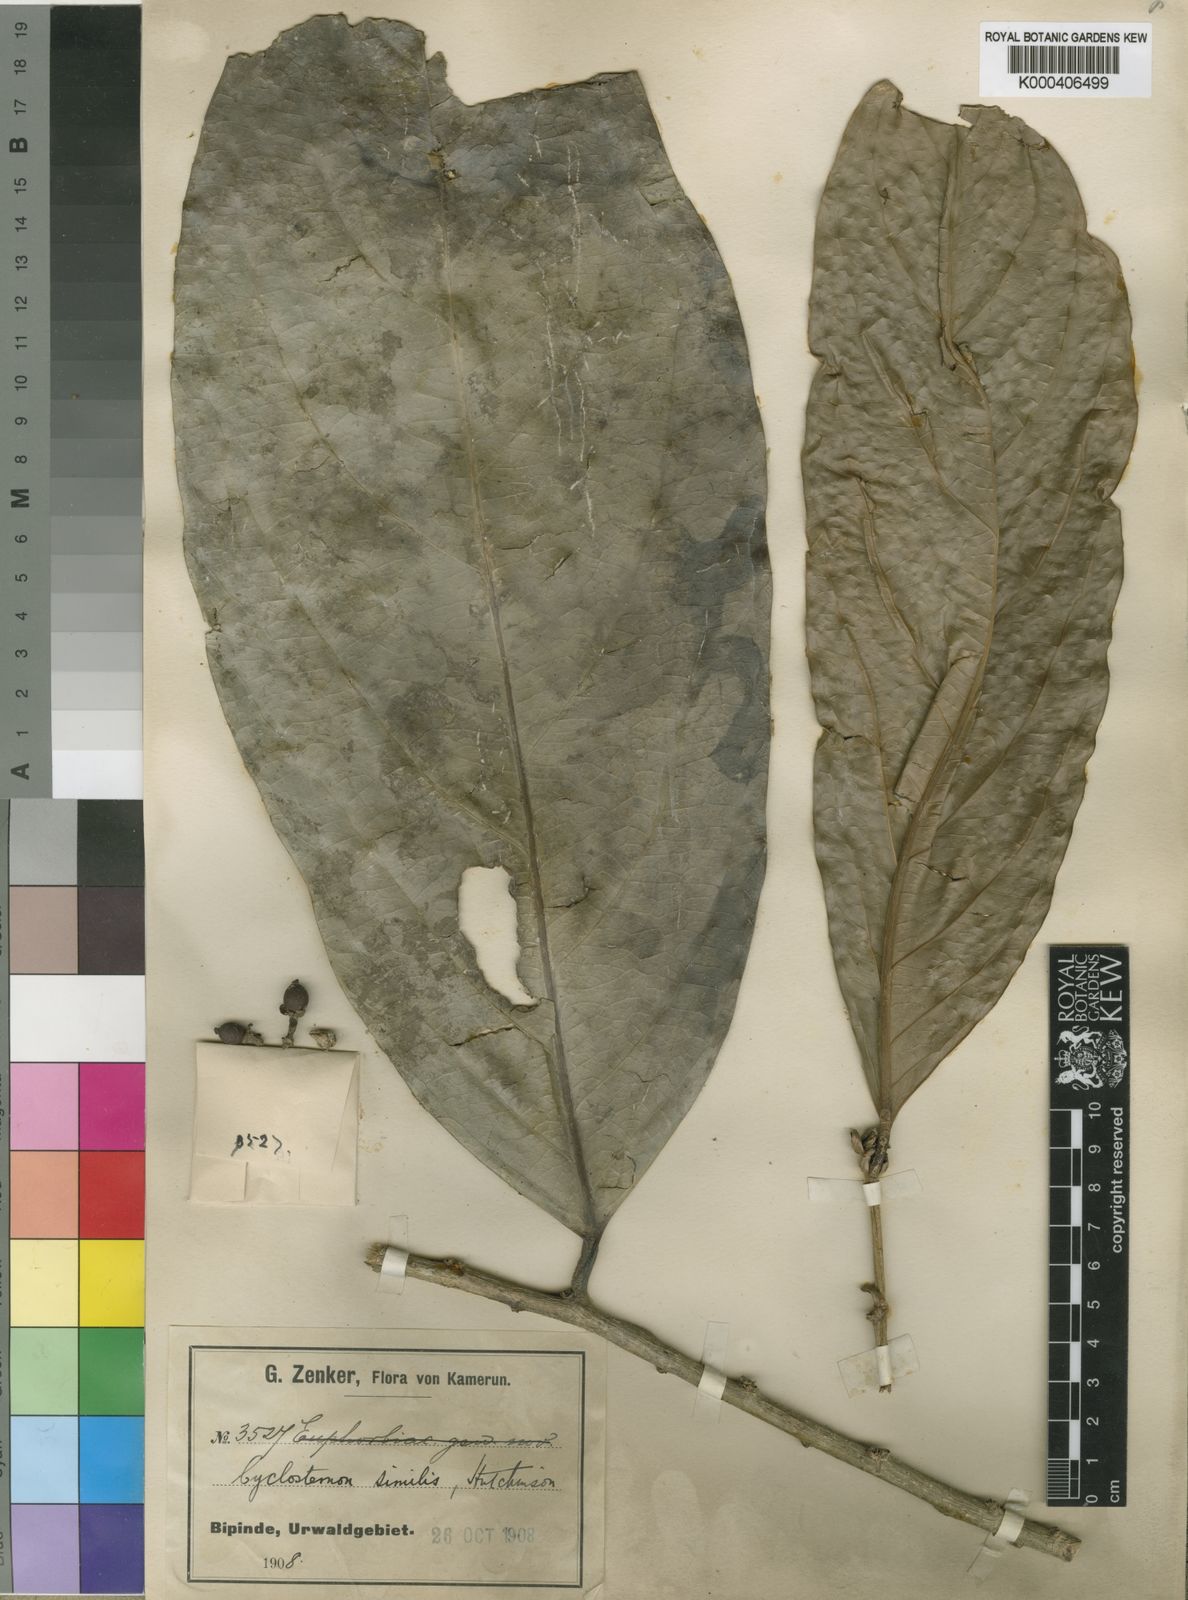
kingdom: Plantae
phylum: Tracheophyta
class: Magnoliopsida
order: Malpighiales
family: Putranjivaceae
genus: Drypetes
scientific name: Drypetes similis
